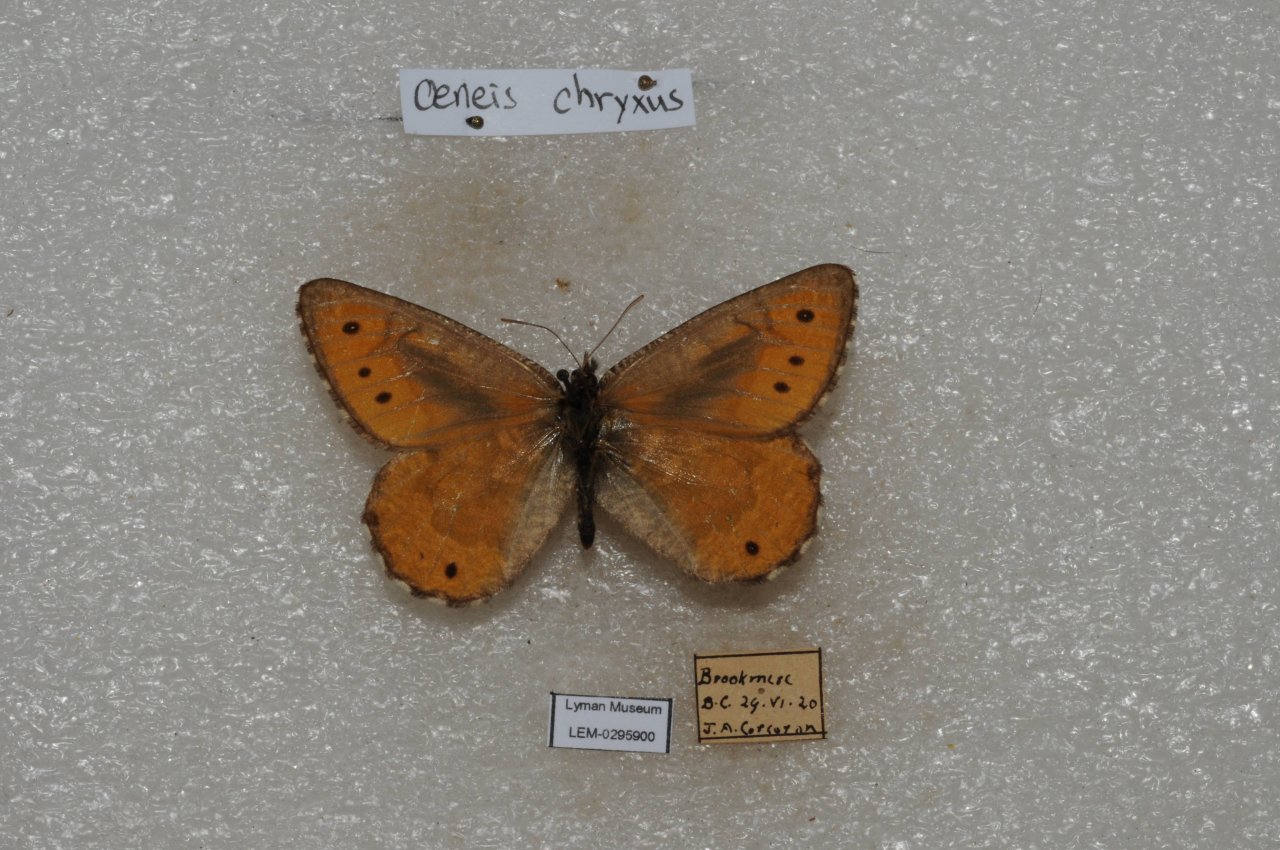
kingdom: Animalia
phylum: Arthropoda
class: Insecta
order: Lepidoptera
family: Nymphalidae
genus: Oeneis
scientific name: Oeneis chryxus
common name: Chryxus Arctic
